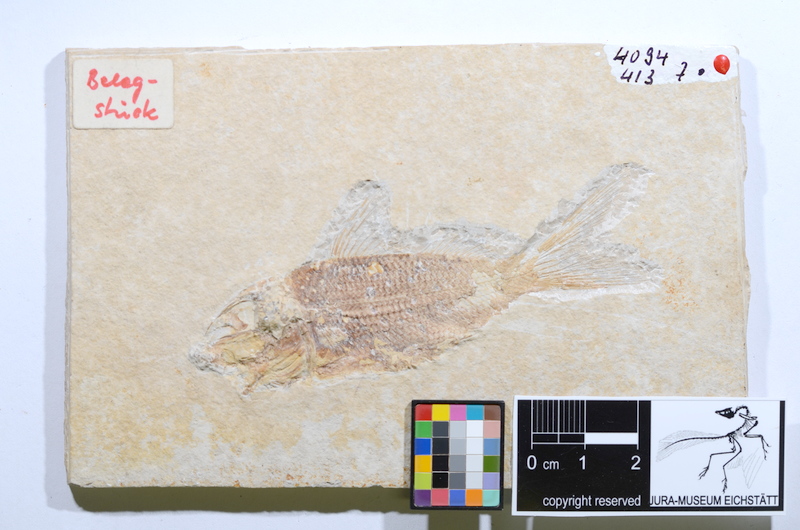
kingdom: Animalia
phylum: Chordata
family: Macrosemiidae
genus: Propterus
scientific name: Propterus microstomus
